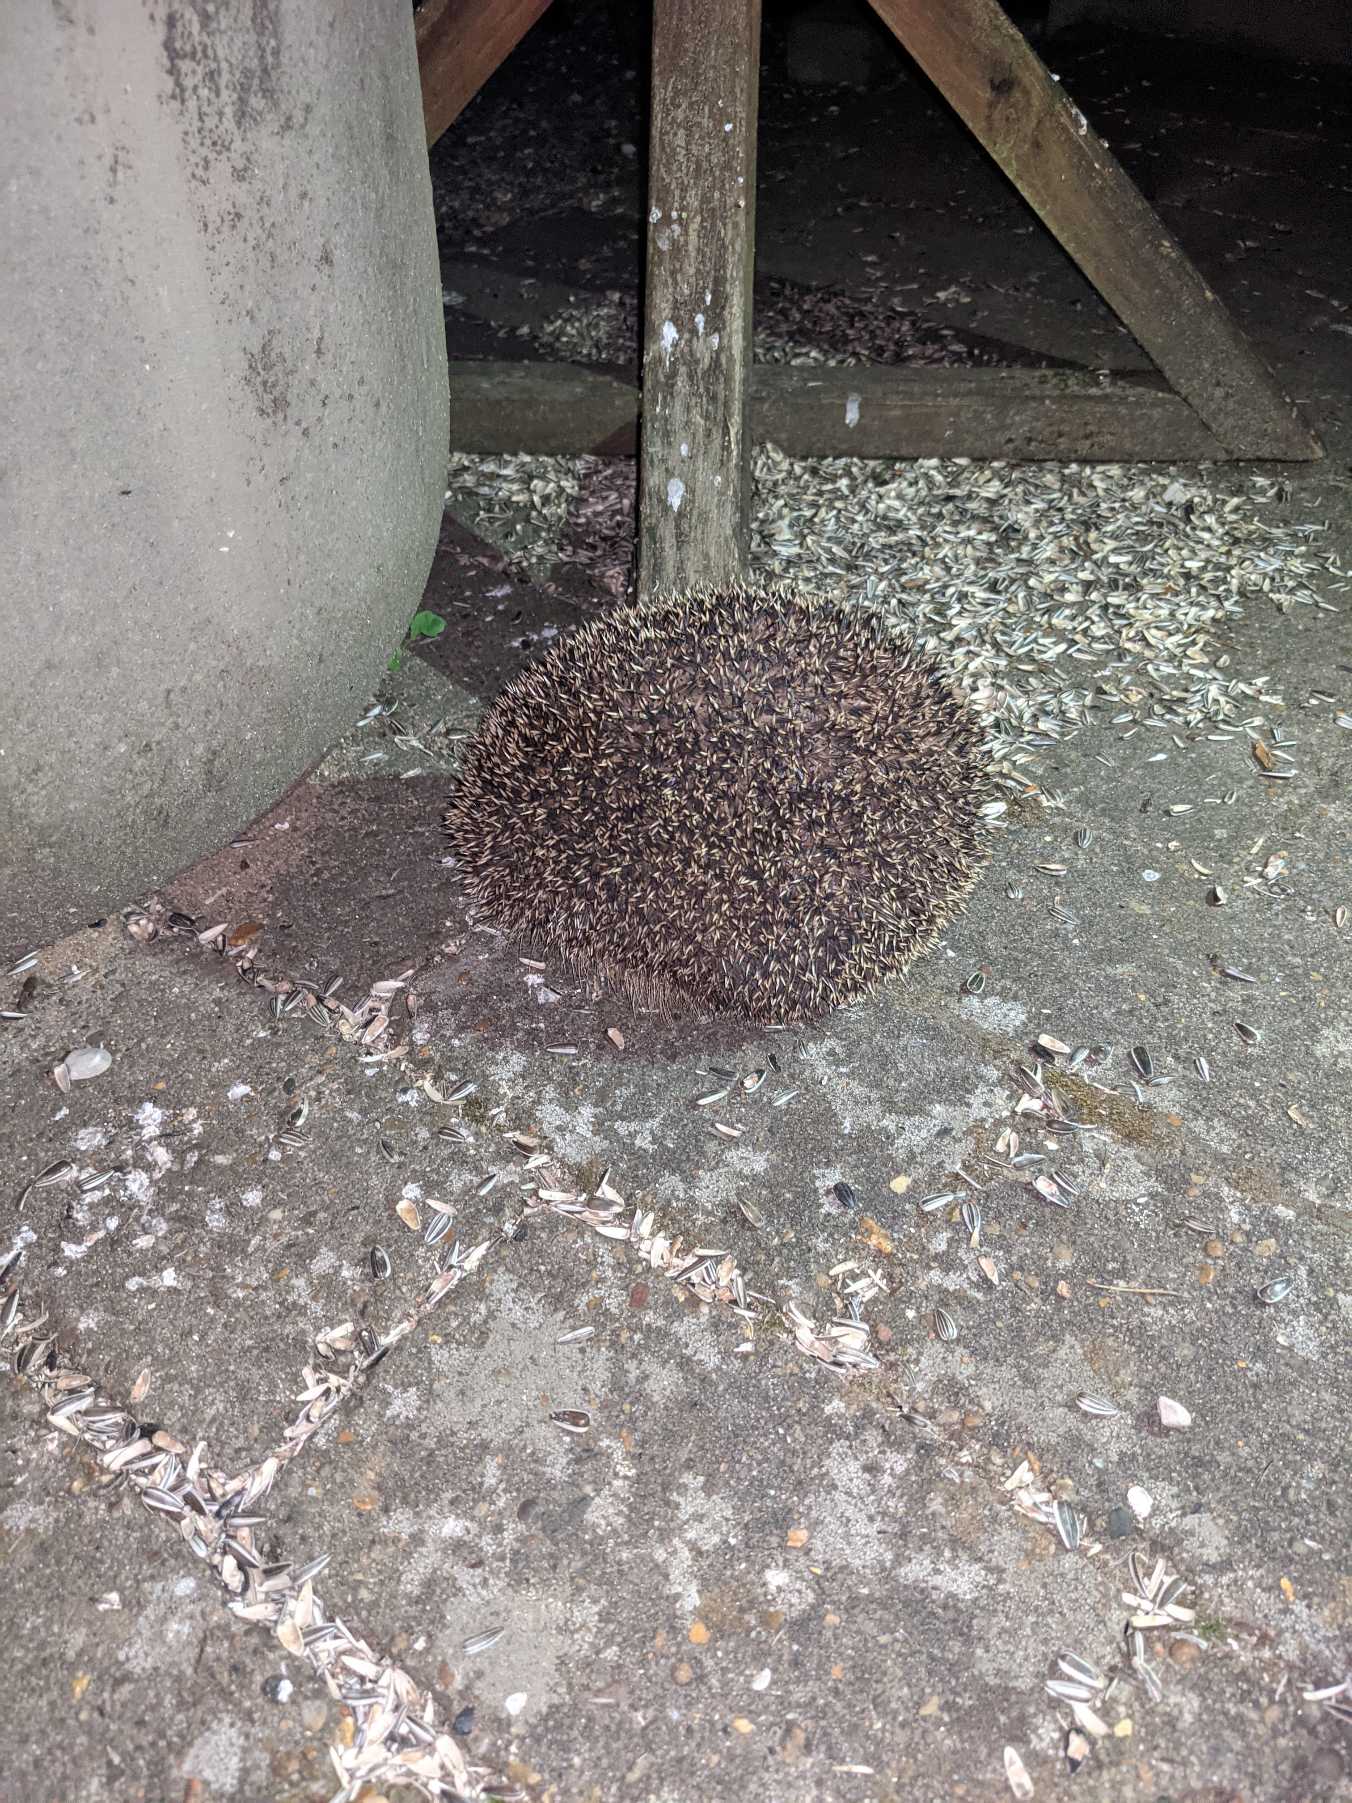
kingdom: Animalia
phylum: Chordata
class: Mammalia
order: Erinaceomorpha
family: Erinaceidae
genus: Erinaceus
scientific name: Erinaceus europaeus
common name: Pindsvin
